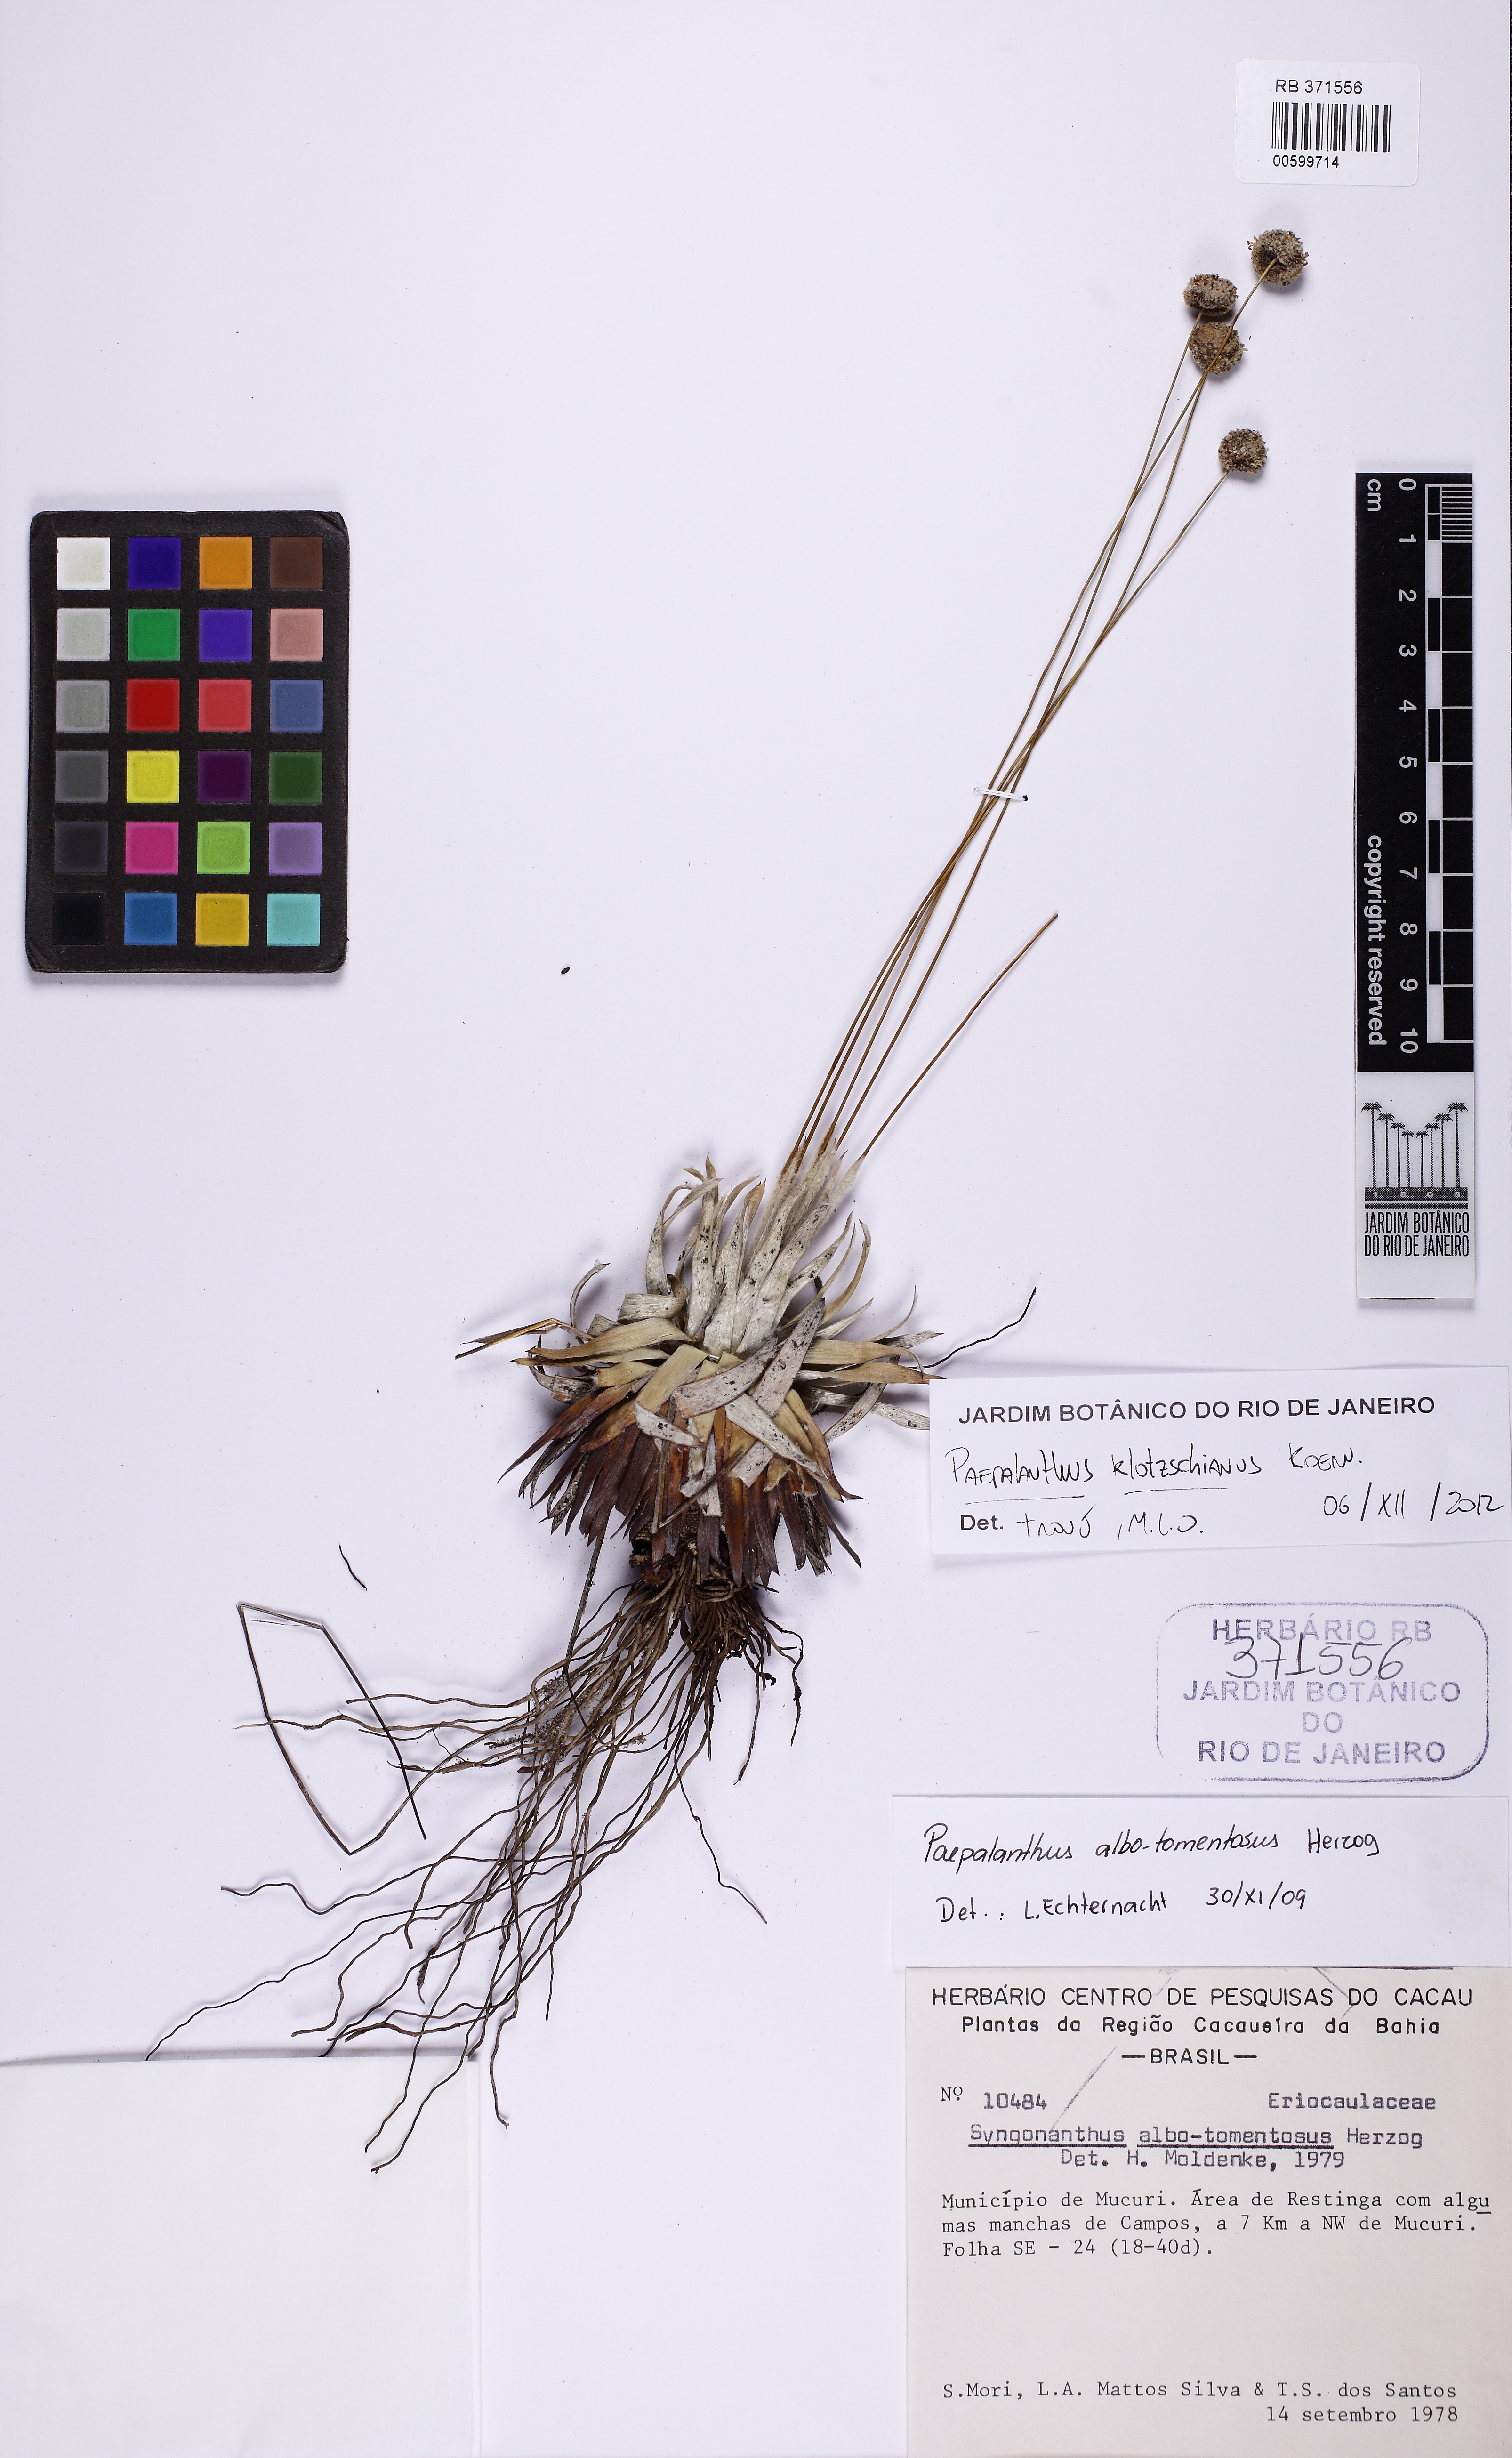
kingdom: Plantae
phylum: Tracheophyta
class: Liliopsida
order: Poales
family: Eriocaulaceae
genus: Paepalanthus
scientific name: Paepalanthus klotzschianus
